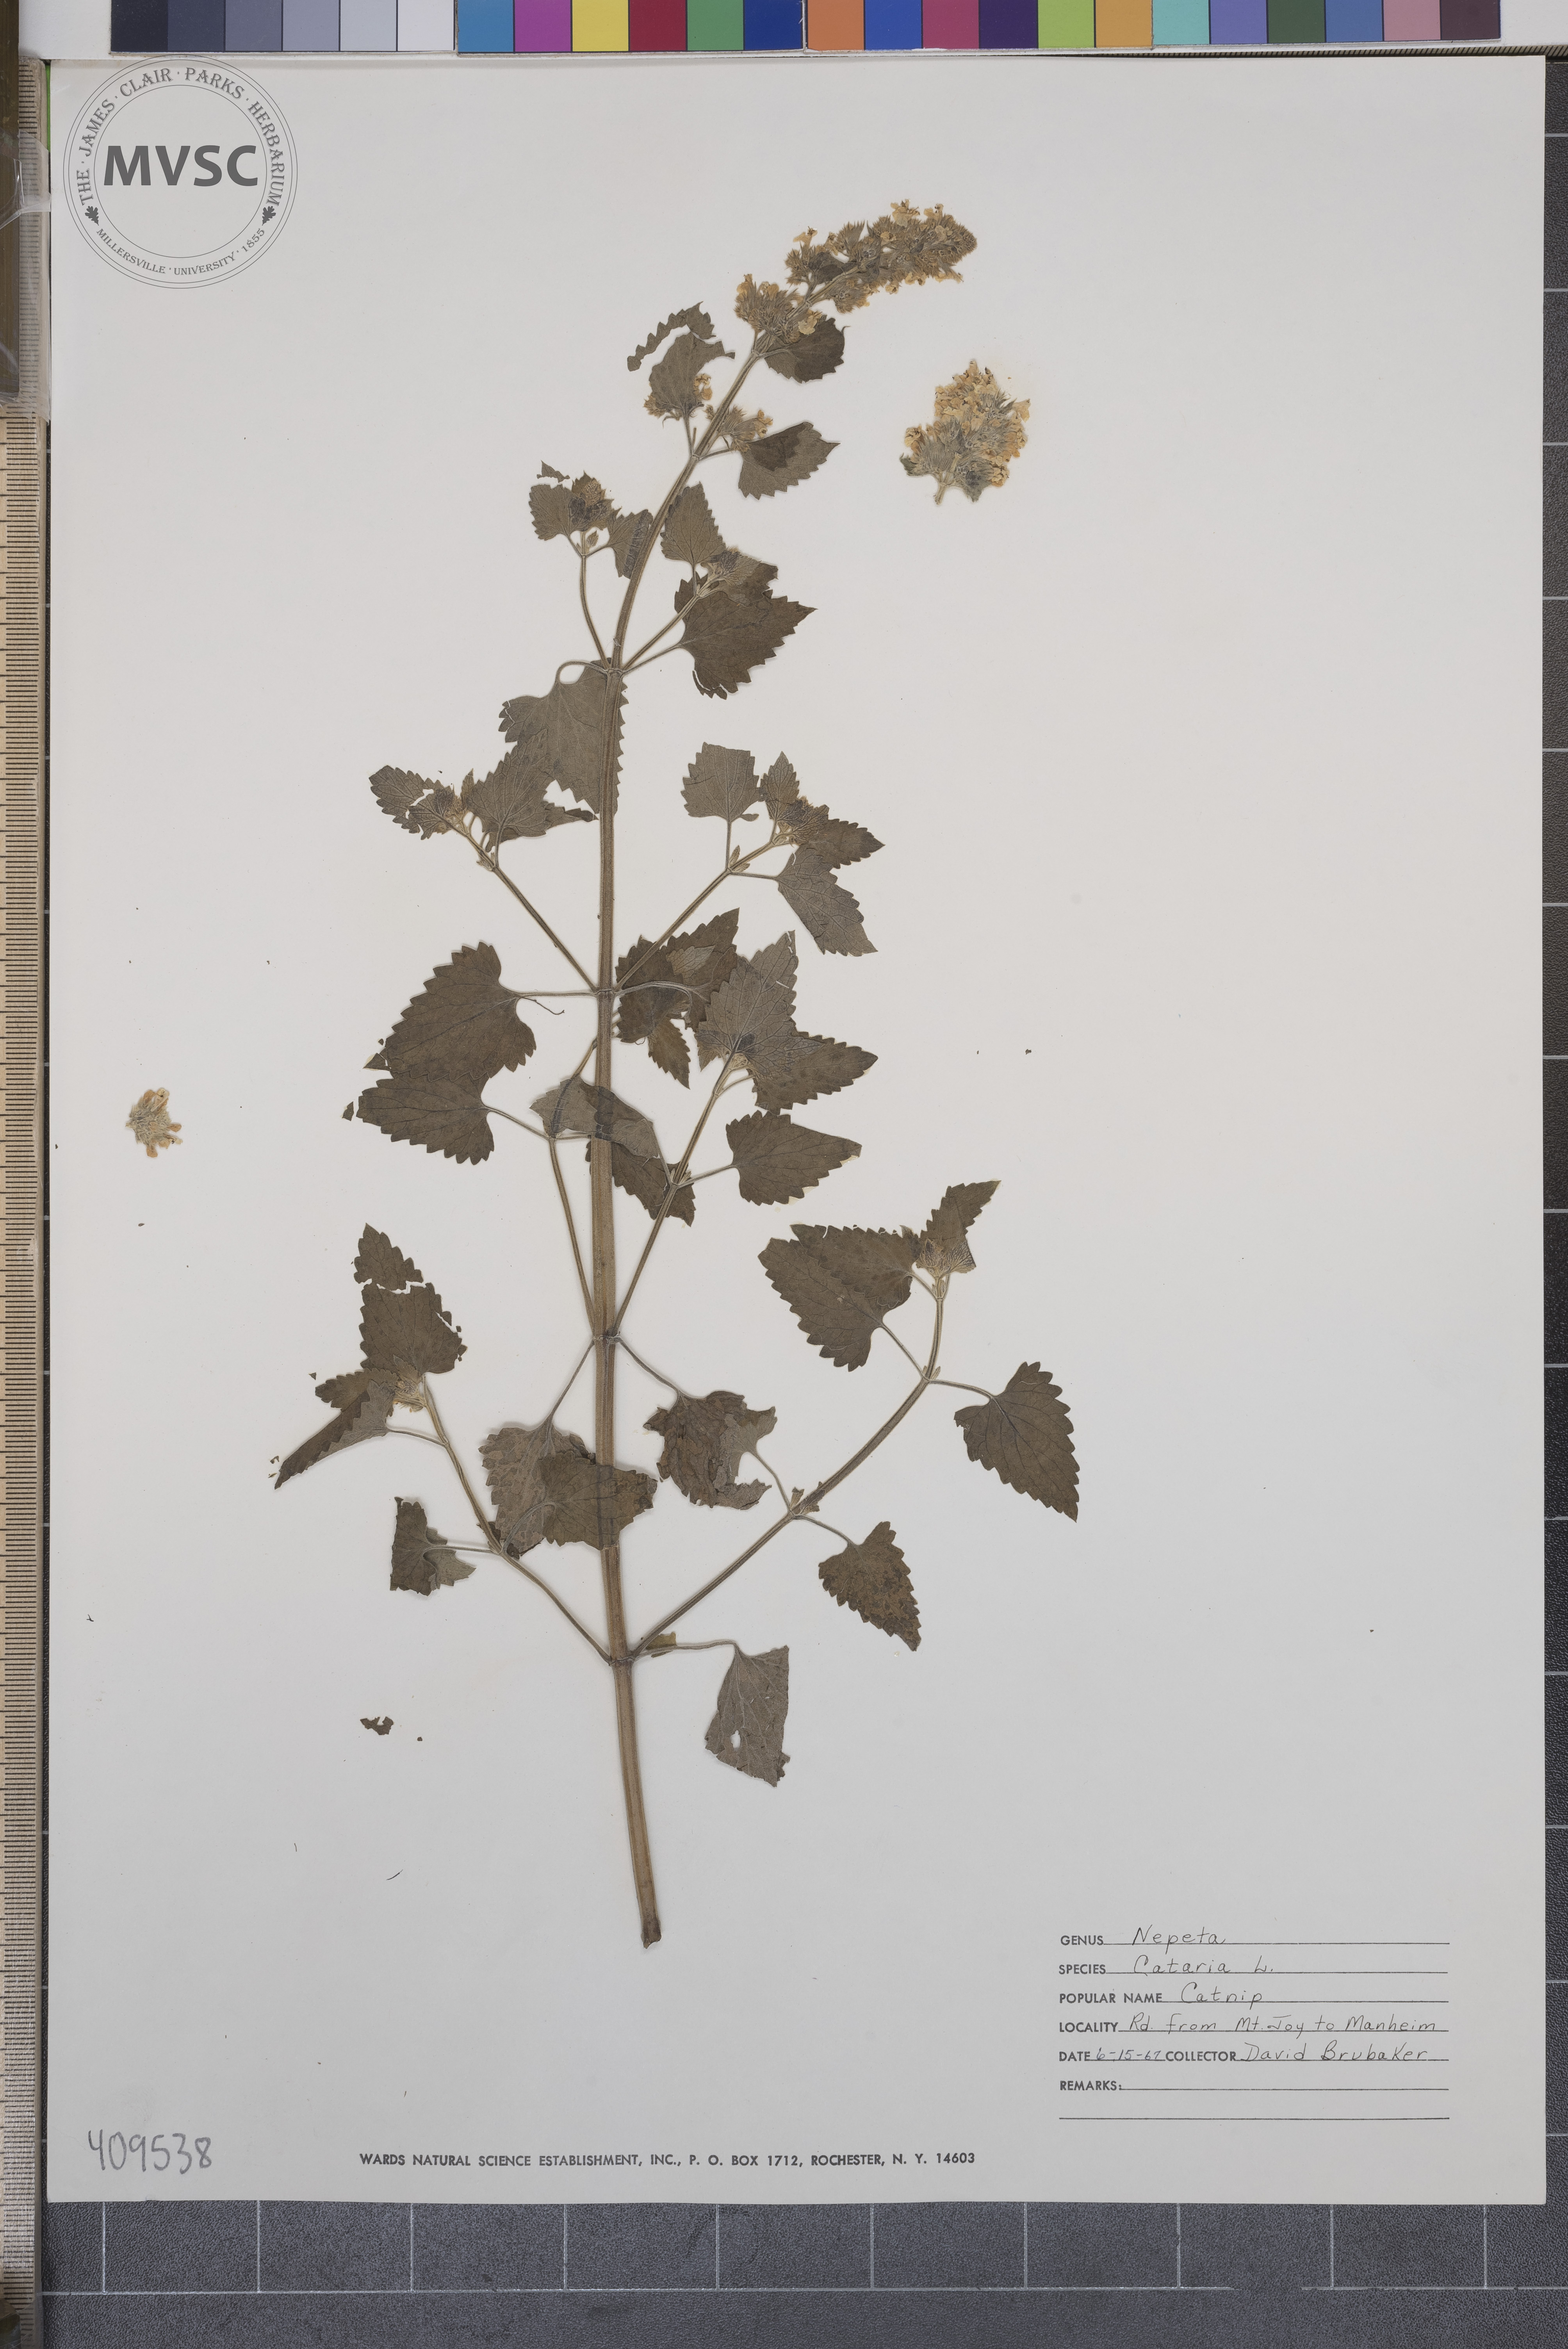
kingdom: Plantae
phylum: Tracheophyta
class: Magnoliopsida
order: Lamiales
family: Lamiaceae
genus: Nepeta
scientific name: Nepeta cataria
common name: Catnip
